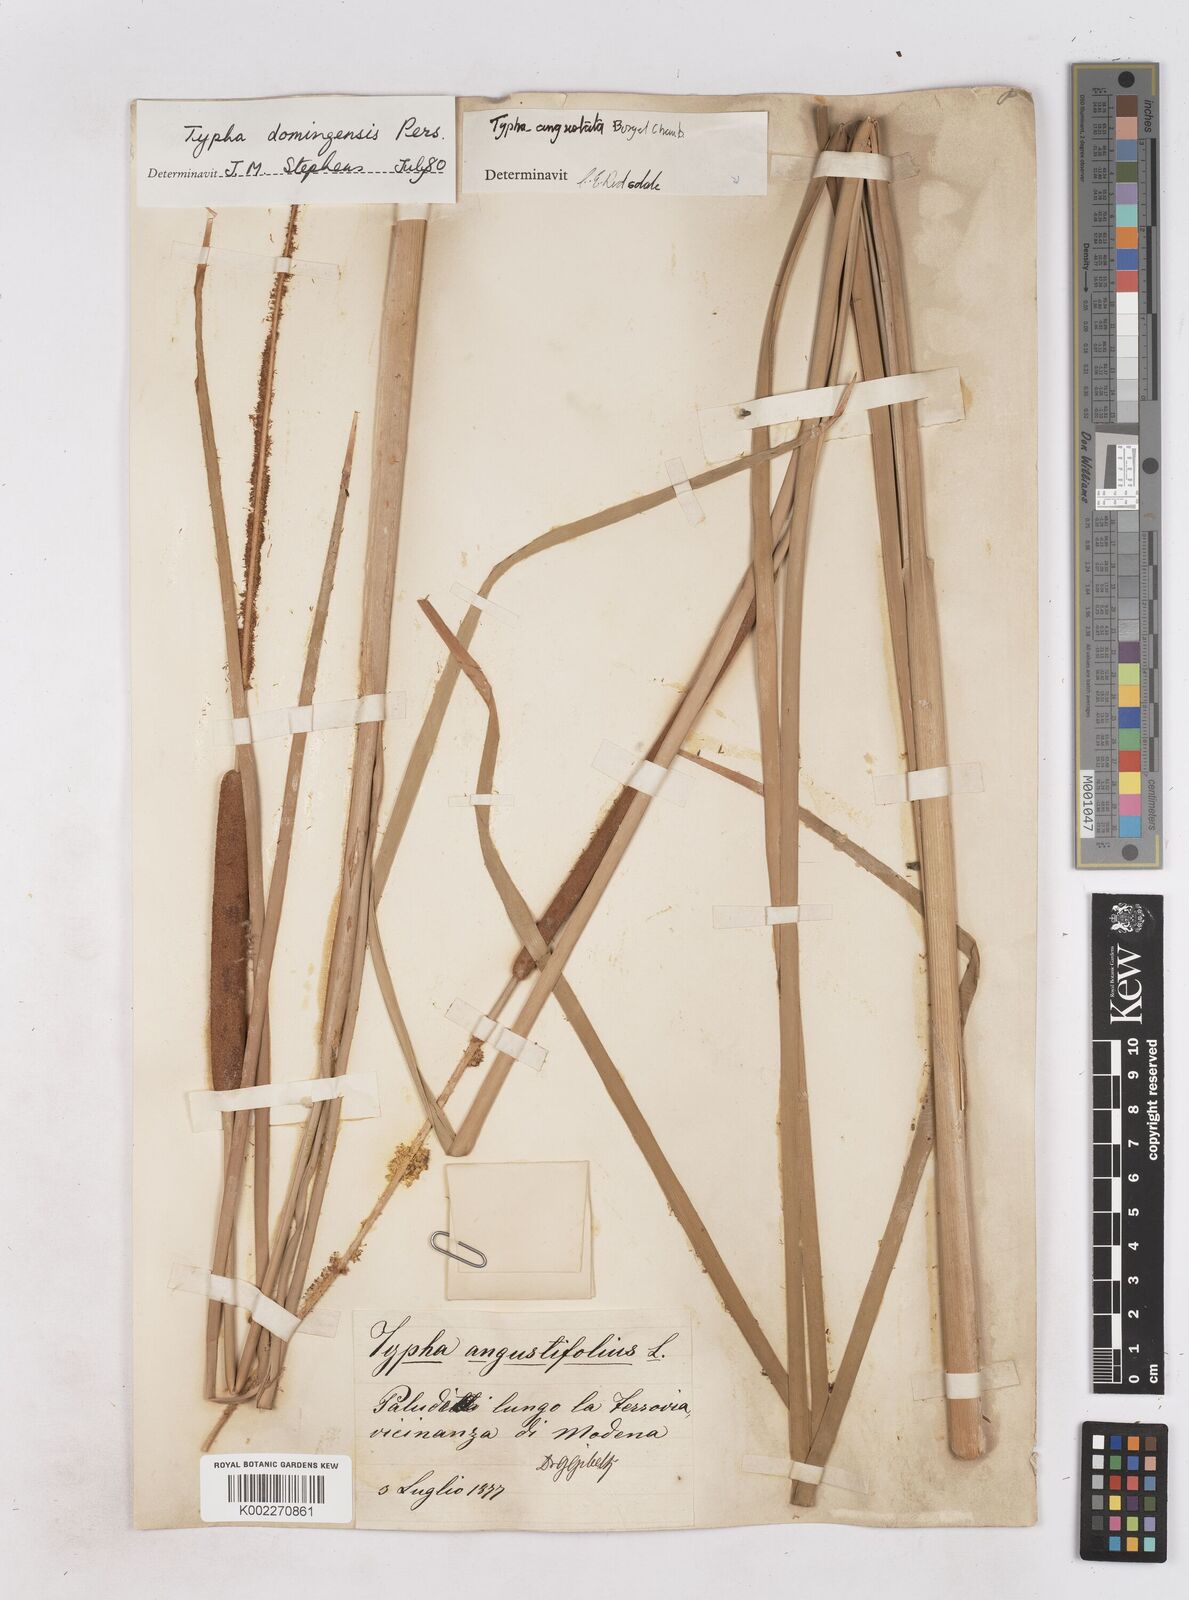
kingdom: Plantae
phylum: Tracheophyta
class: Liliopsida
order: Poales
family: Typhaceae
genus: Typha
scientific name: Typha domingensis
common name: Southern cattail
